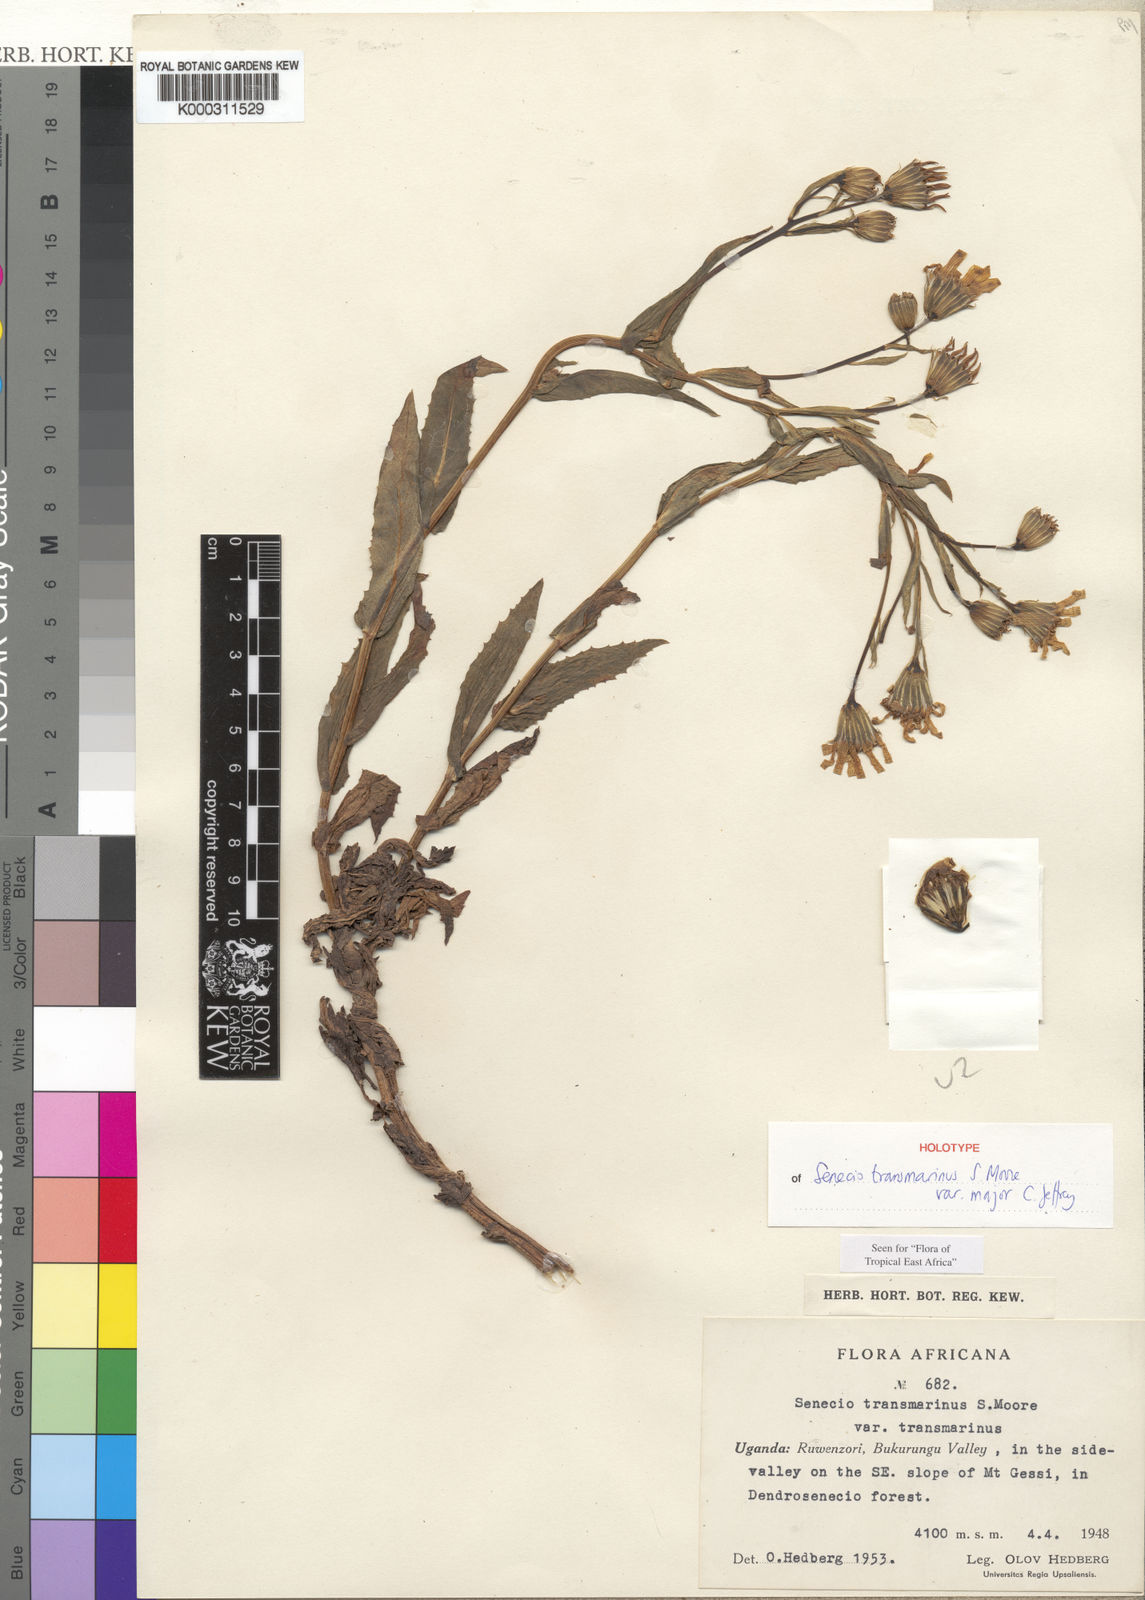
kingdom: Plantae
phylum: Tracheophyta
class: Magnoliopsida
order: Asterales
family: Asteraceae
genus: Senecio
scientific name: Senecio transmarinus
